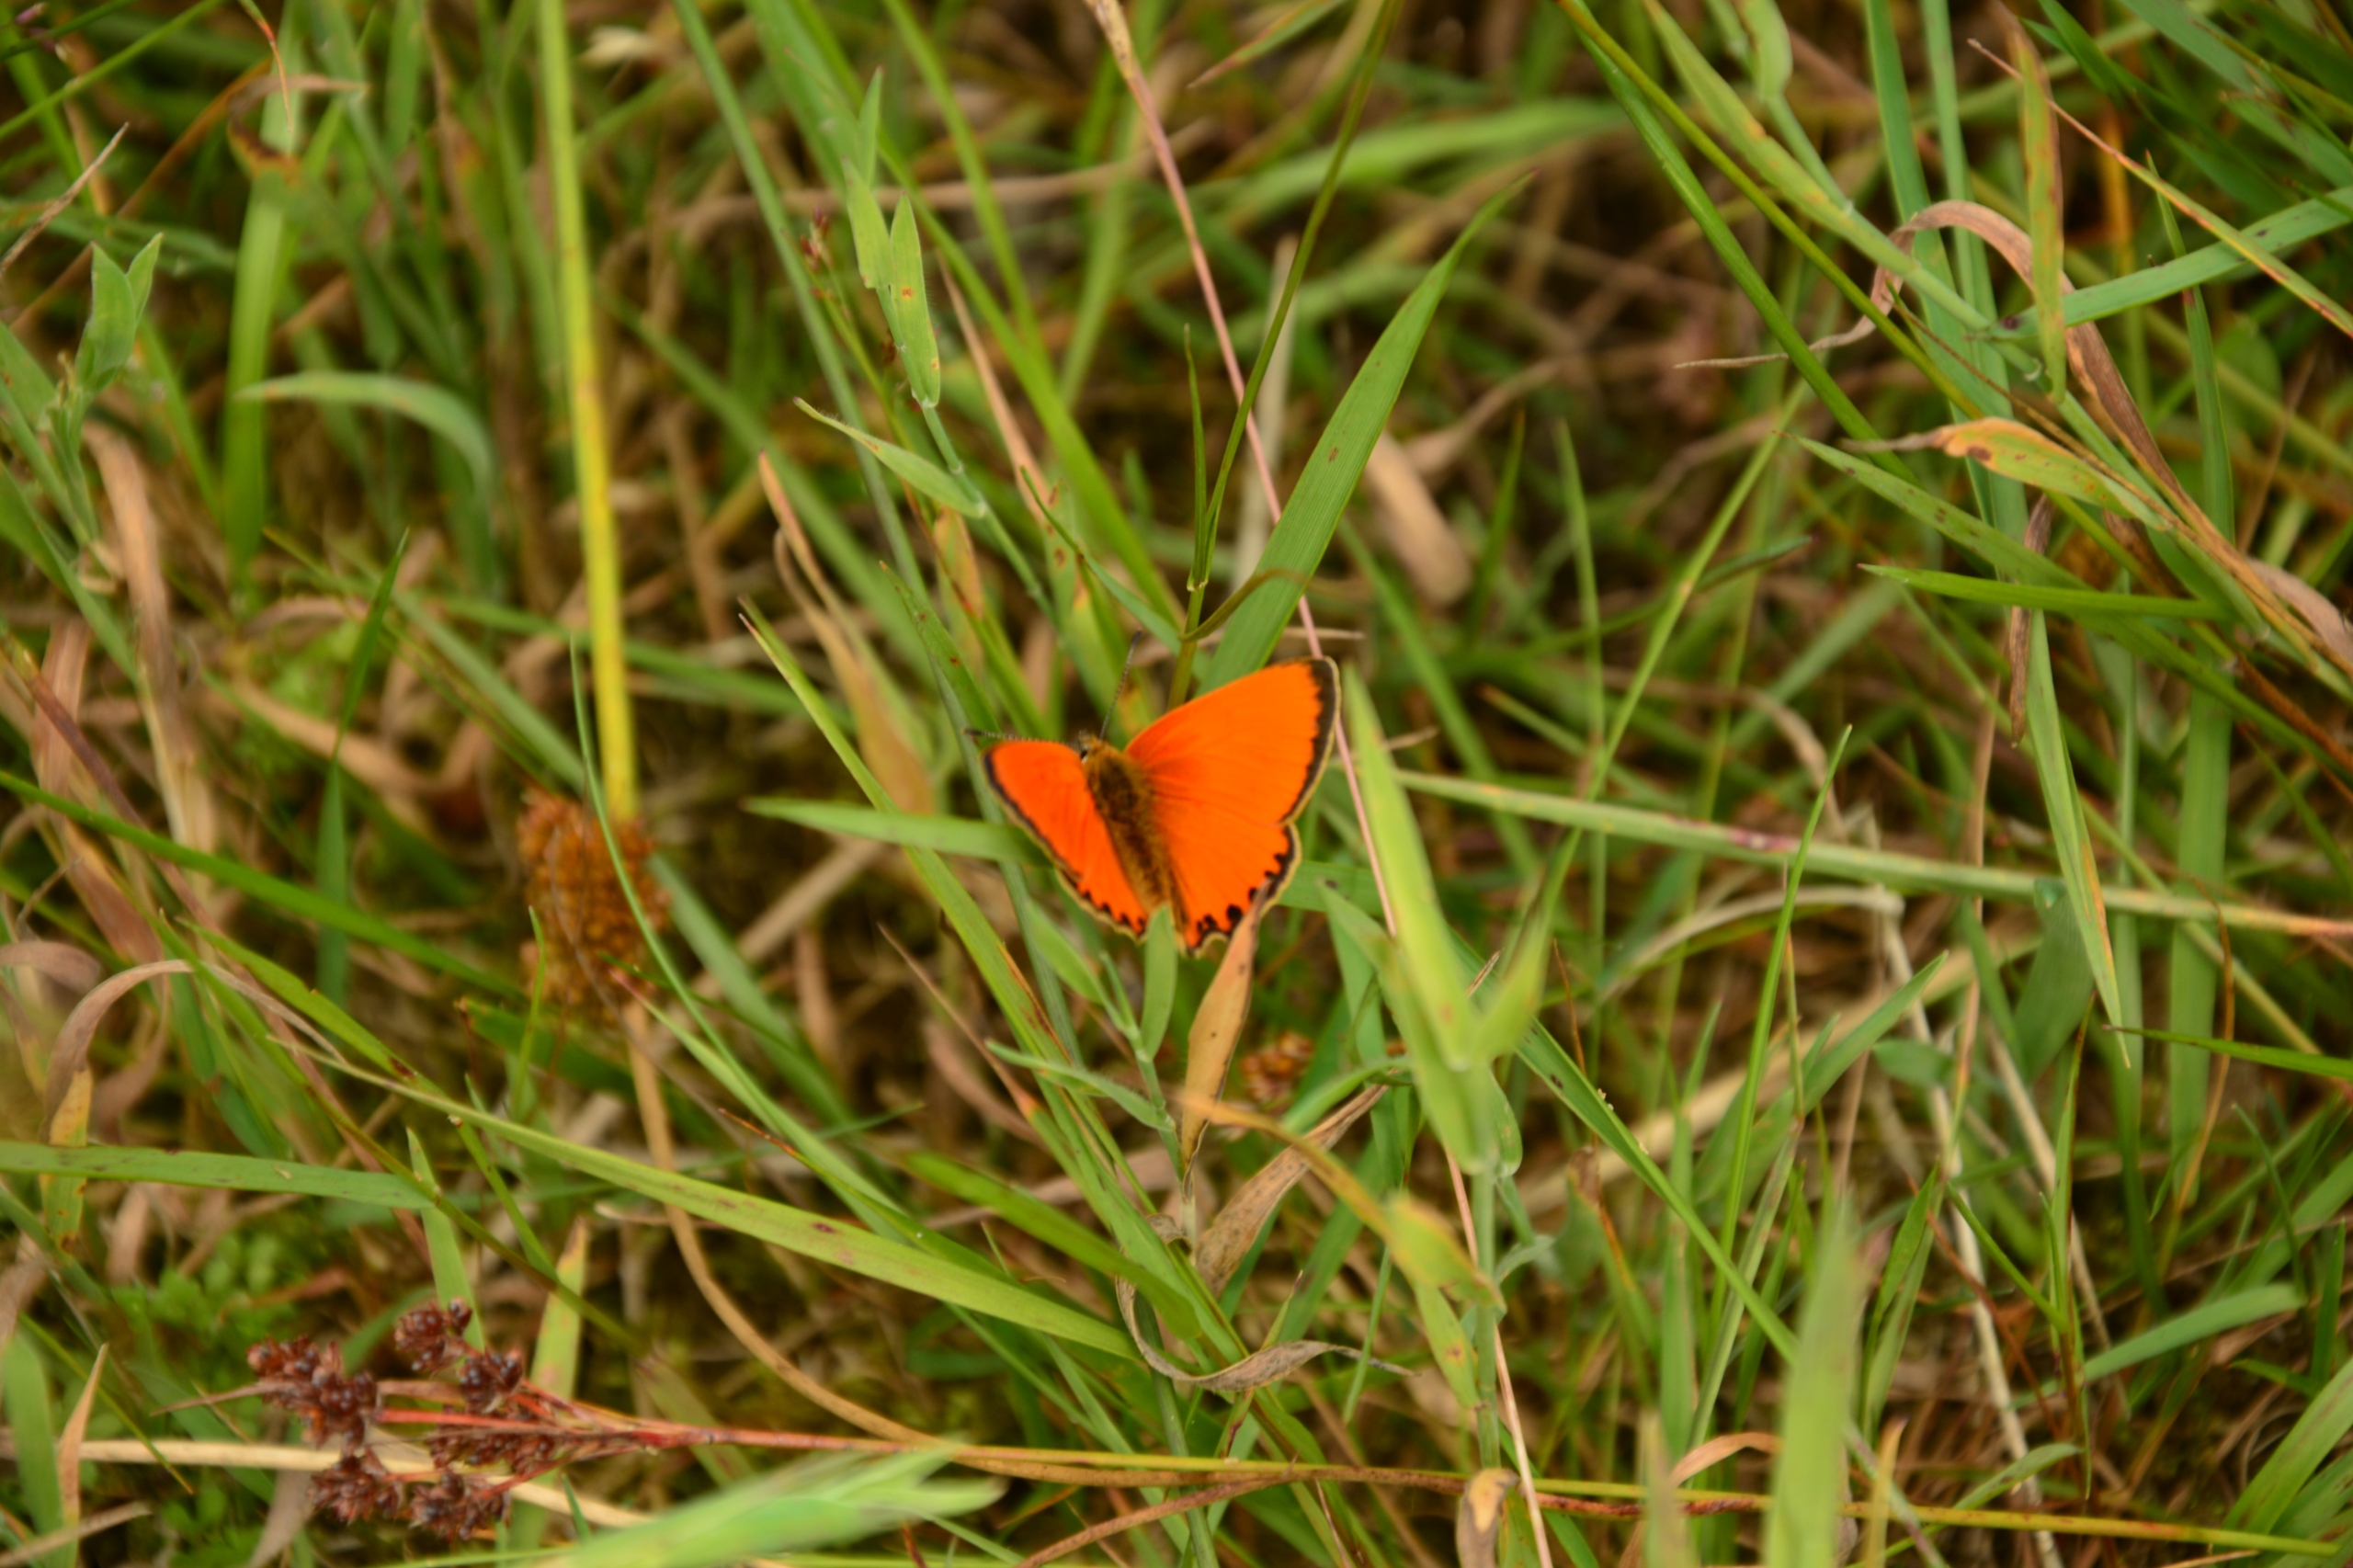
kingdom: Animalia
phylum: Arthropoda
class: Insecta
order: Lepidoptera
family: Lycaenidae
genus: Lycaena
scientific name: Lycaena virgaureae
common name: Dukatsommerfugl
